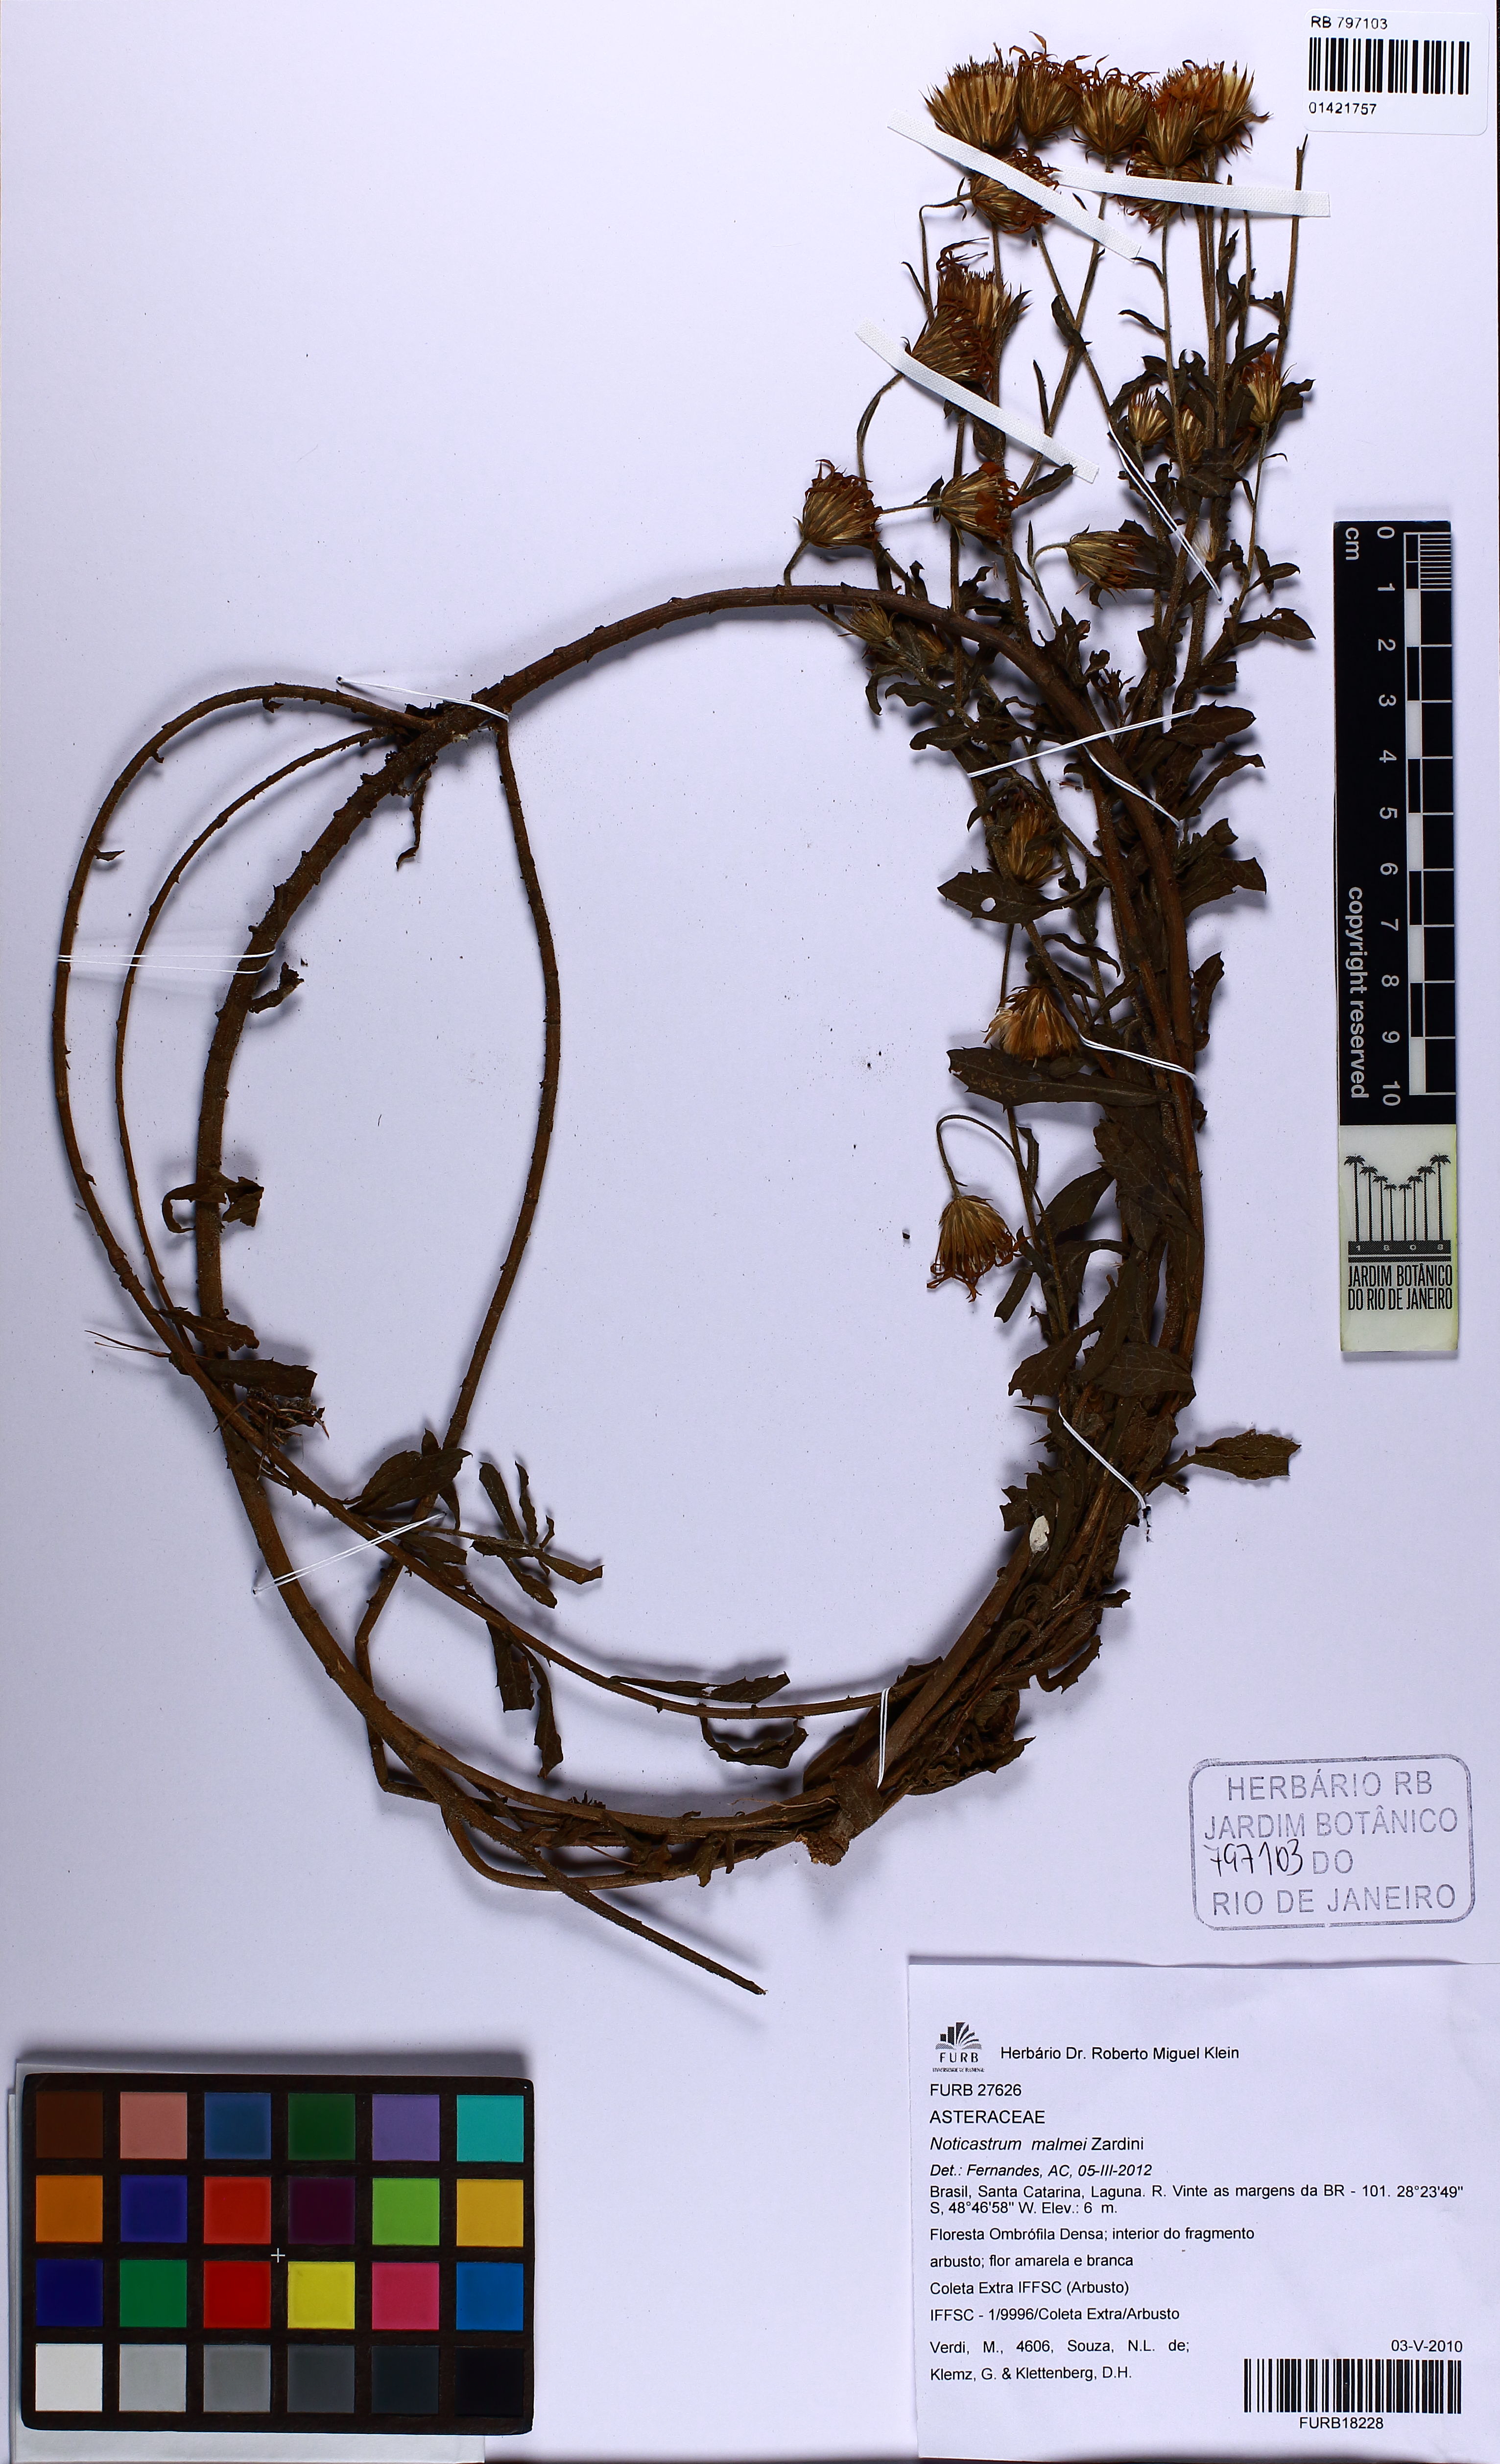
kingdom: Plantae
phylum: Tracheophyta
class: Magnoliopsida
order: Asterales
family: Asteraceae
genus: Noticastrum
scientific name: Noticastrum malmei
